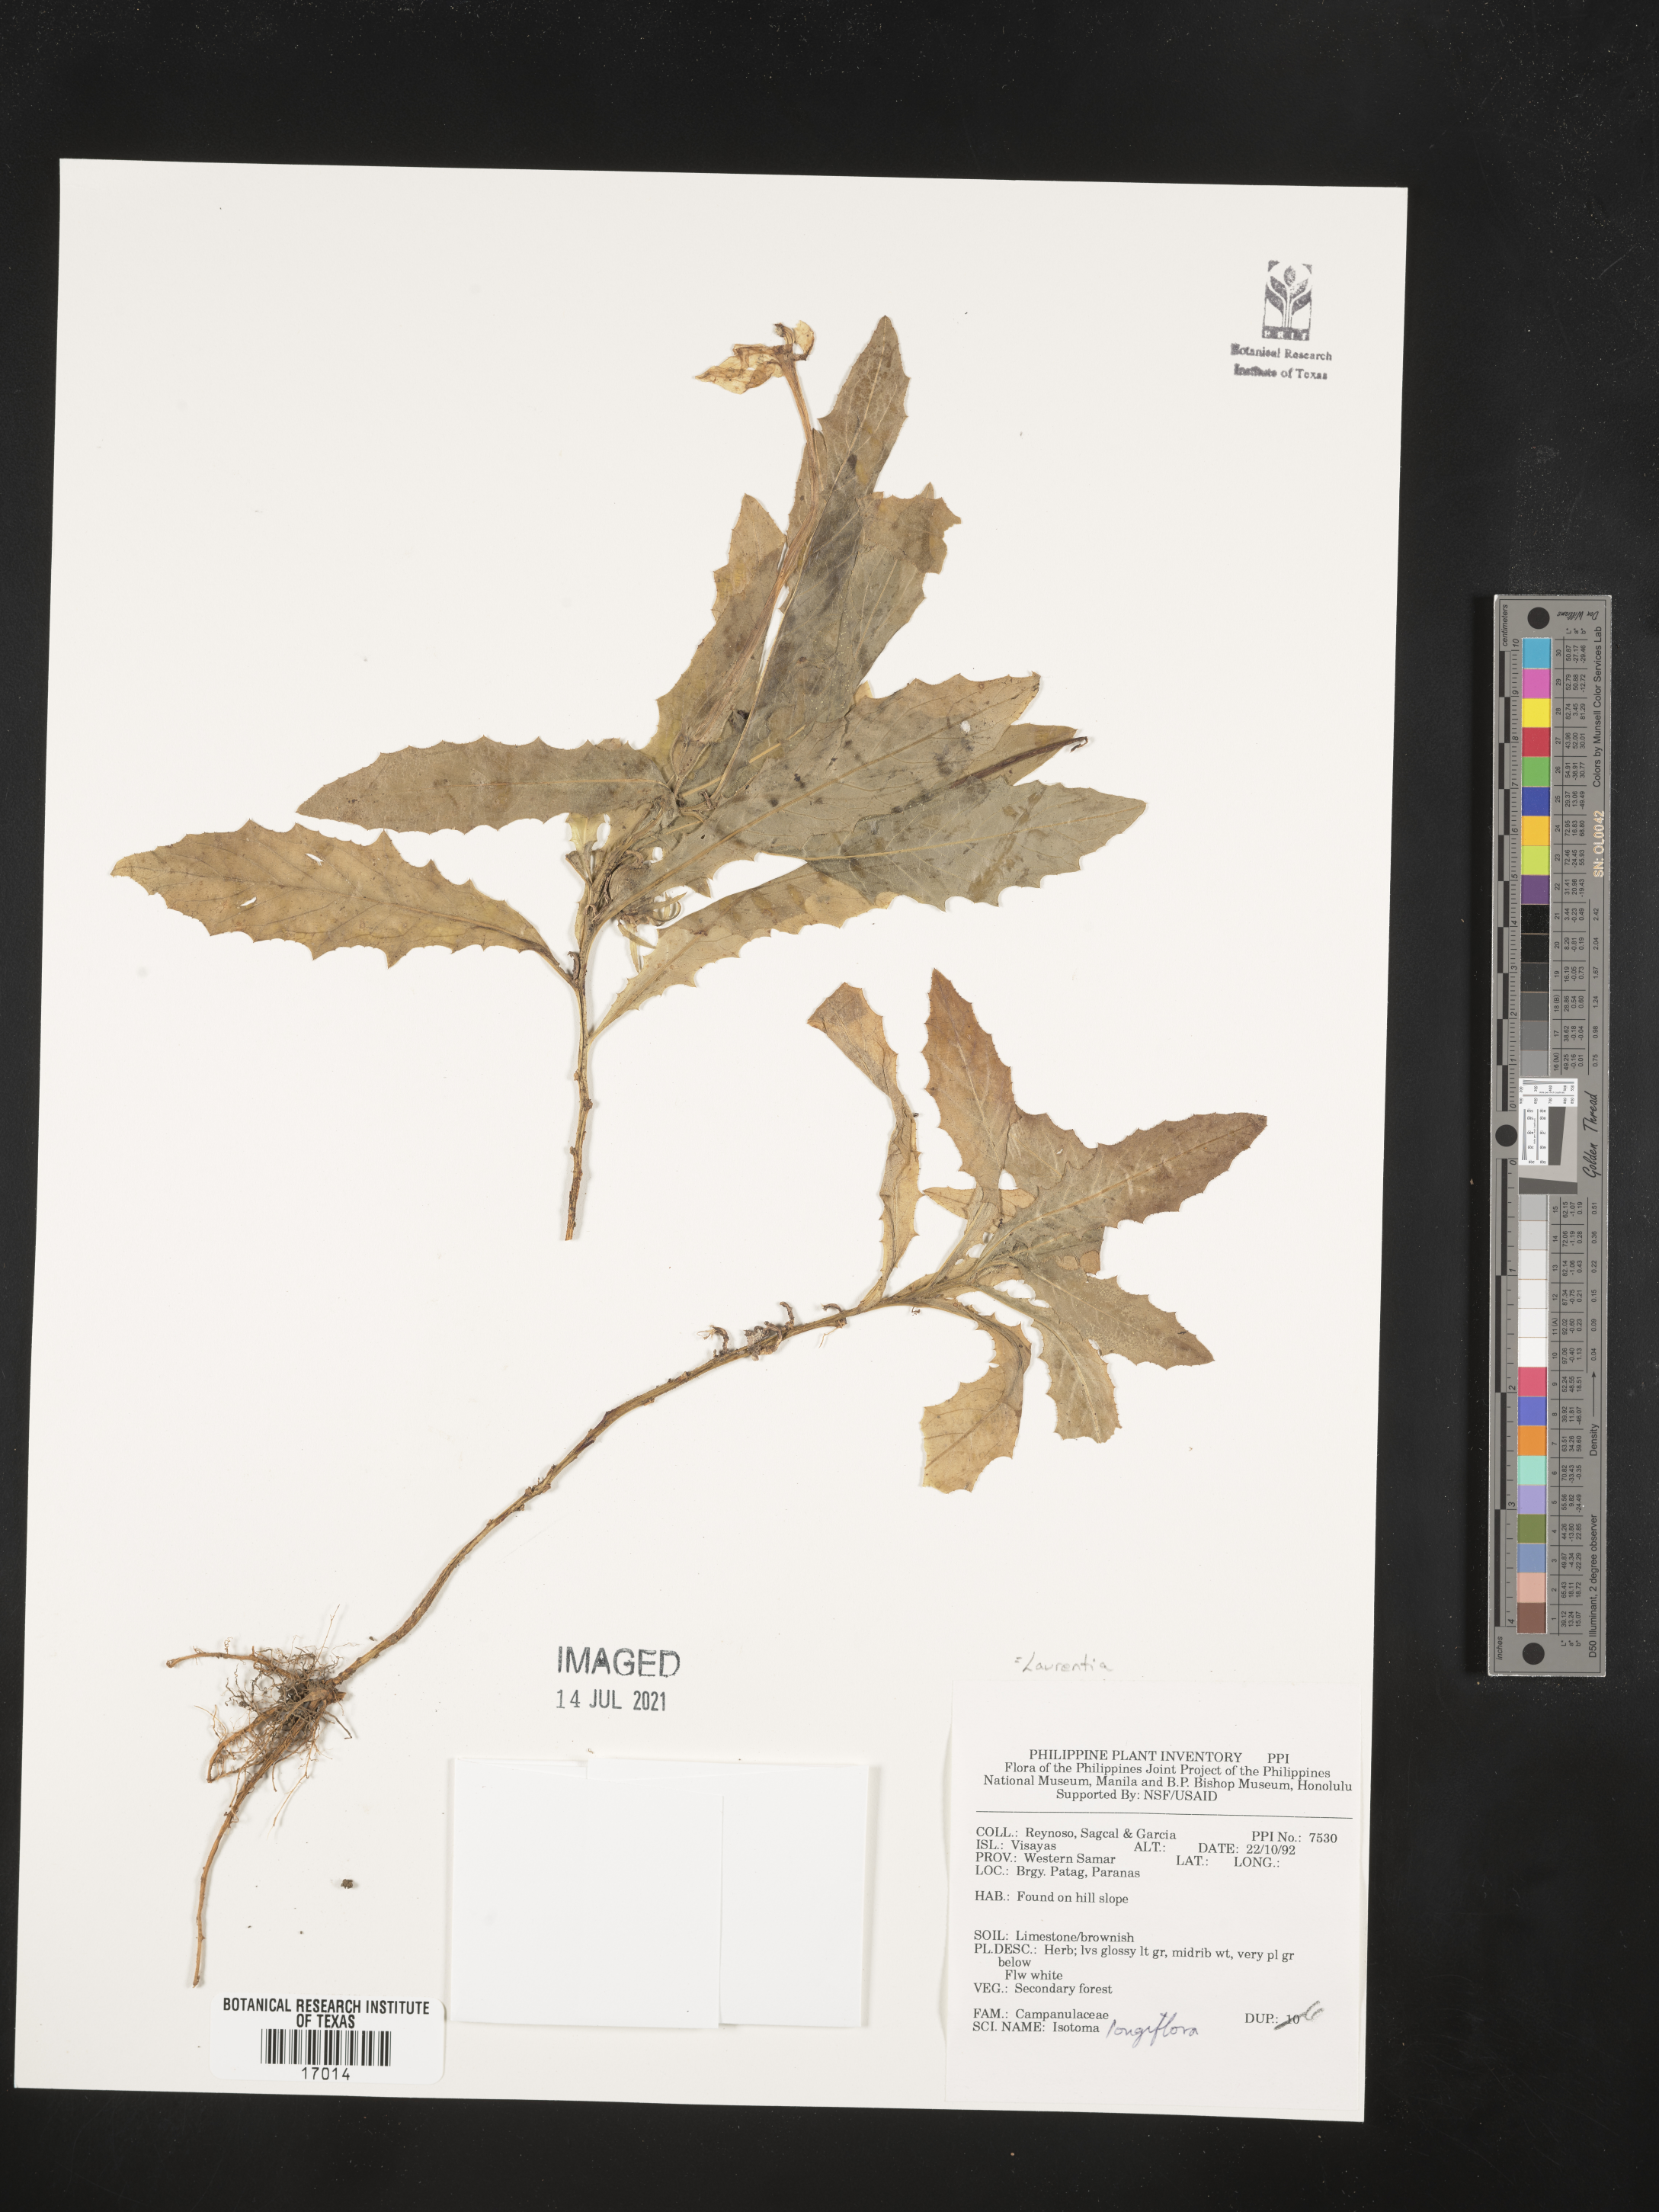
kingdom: Plantae
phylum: Tracheophyta
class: Magnoliopsida
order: Asterales
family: Campanulaceae
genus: Hippobroma
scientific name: Hippobroma longiflora
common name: Madamfate
